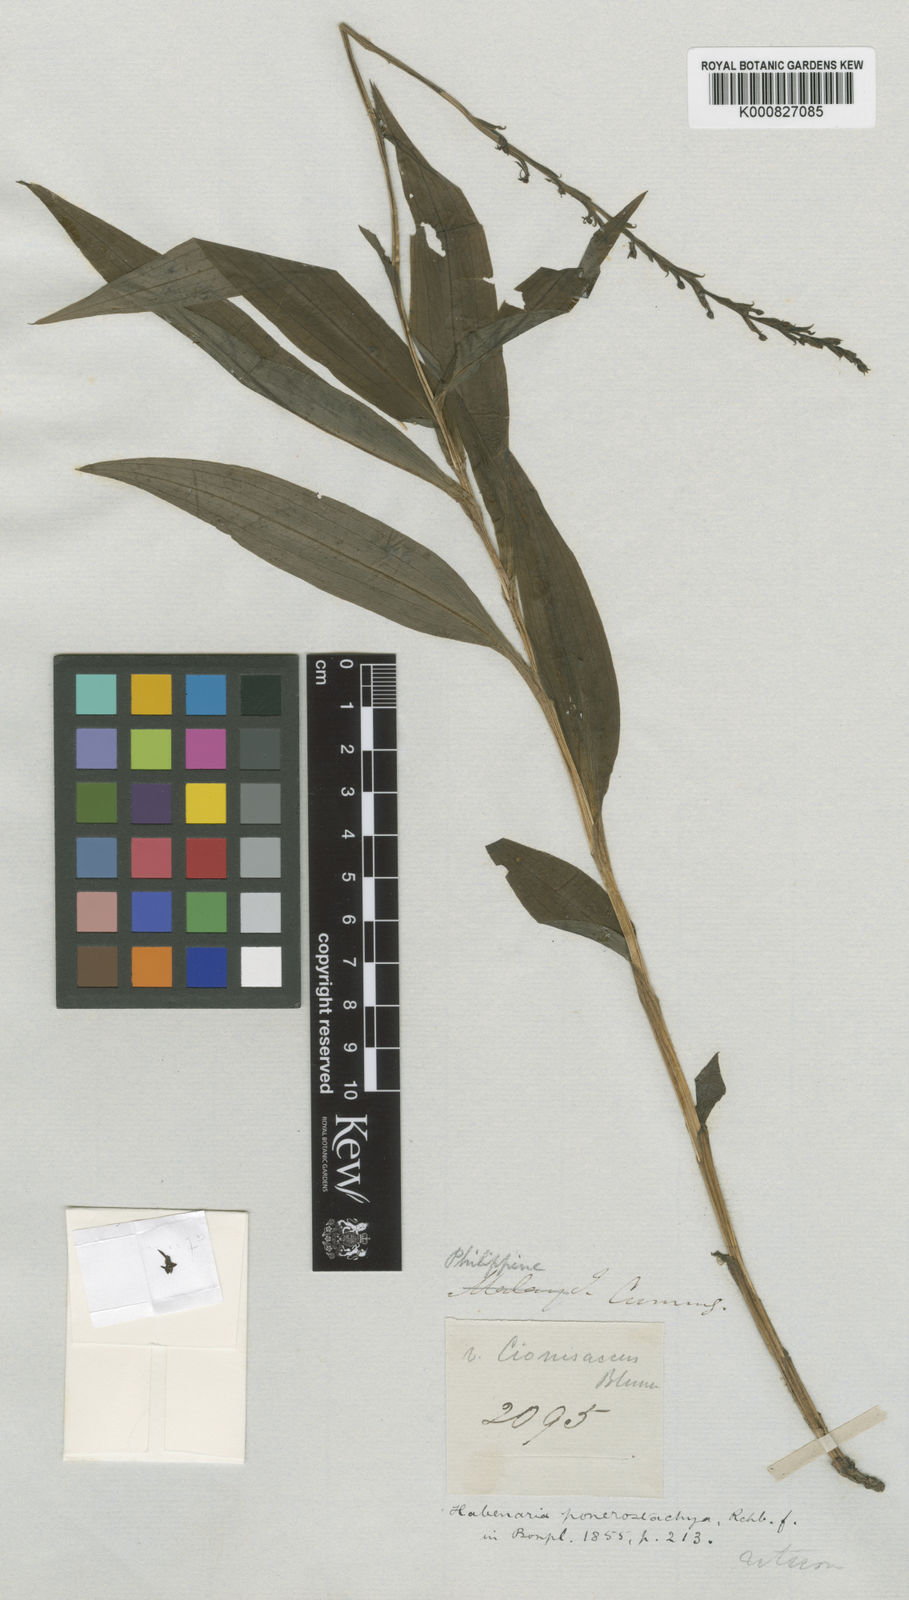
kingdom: Plantae
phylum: Tracheophyta
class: Liliopsida
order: Asparagales
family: Orchidaceae
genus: Peristylus
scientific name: Peristylus ponerostachys
